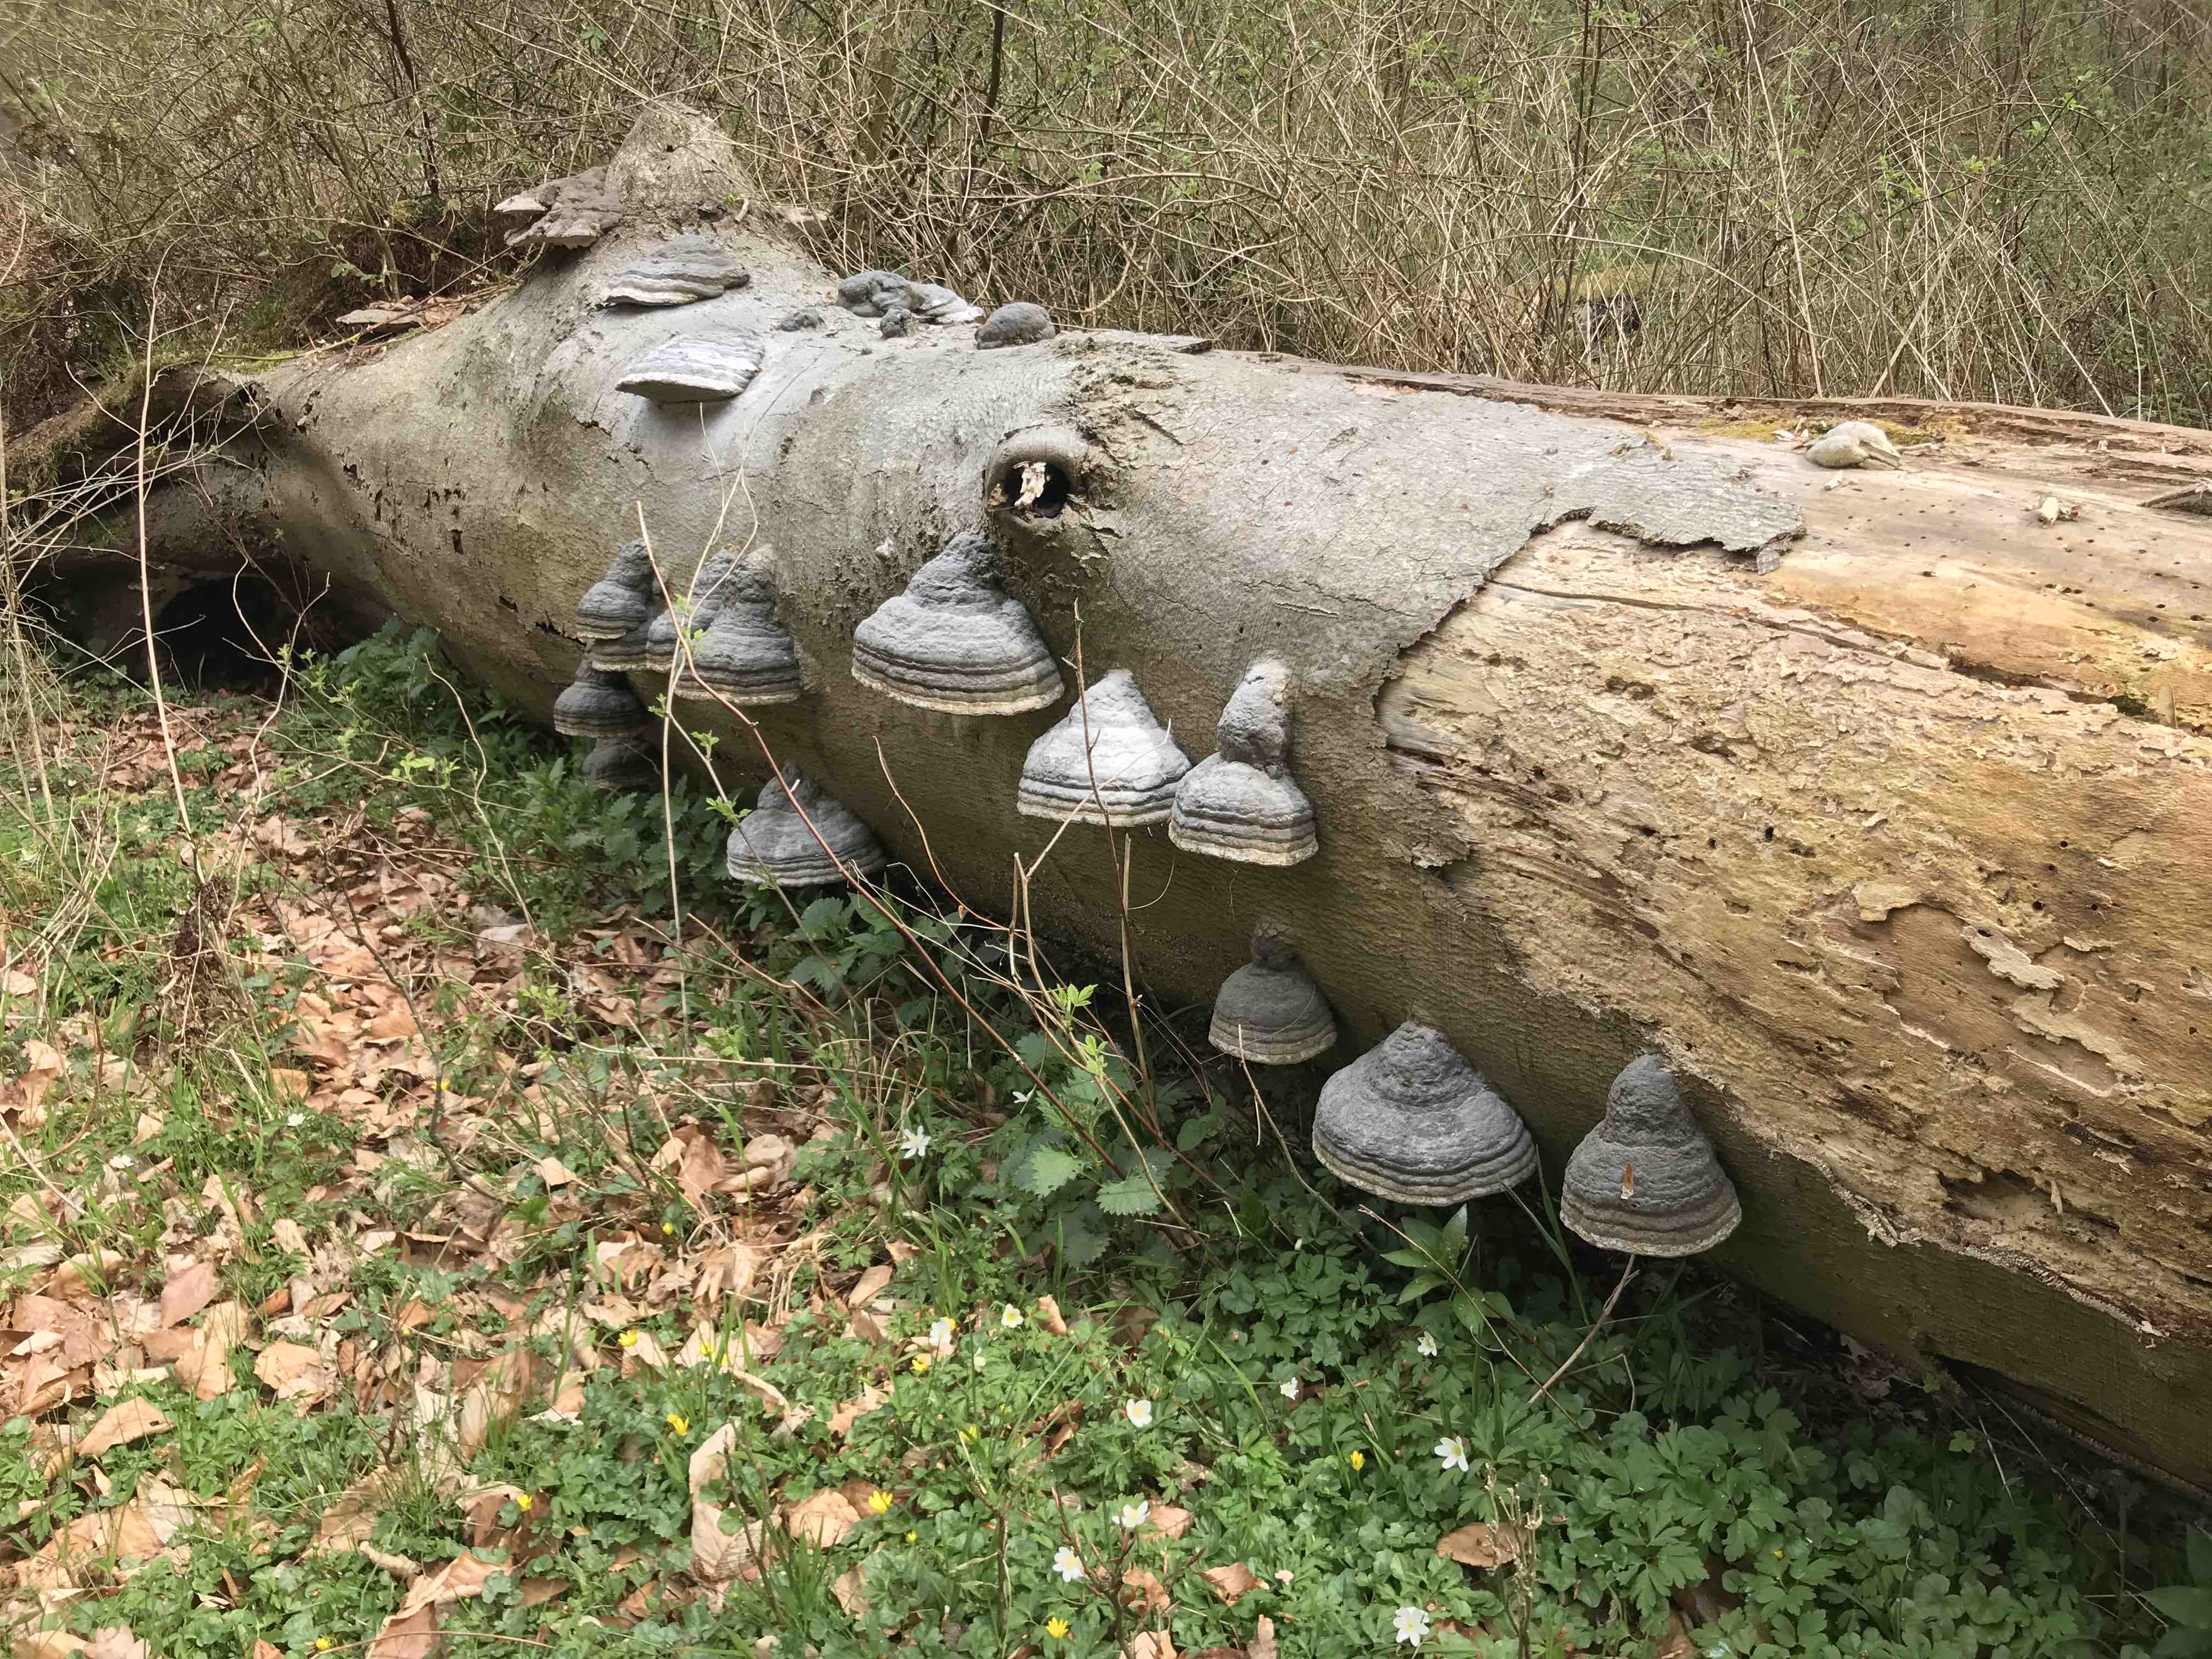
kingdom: Fungi
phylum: Basidiomycota
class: Agaricomycetes
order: Polyporales
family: Polyporaceae
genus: Fomes
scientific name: Fomes fomentarius
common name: tøndersvamp
